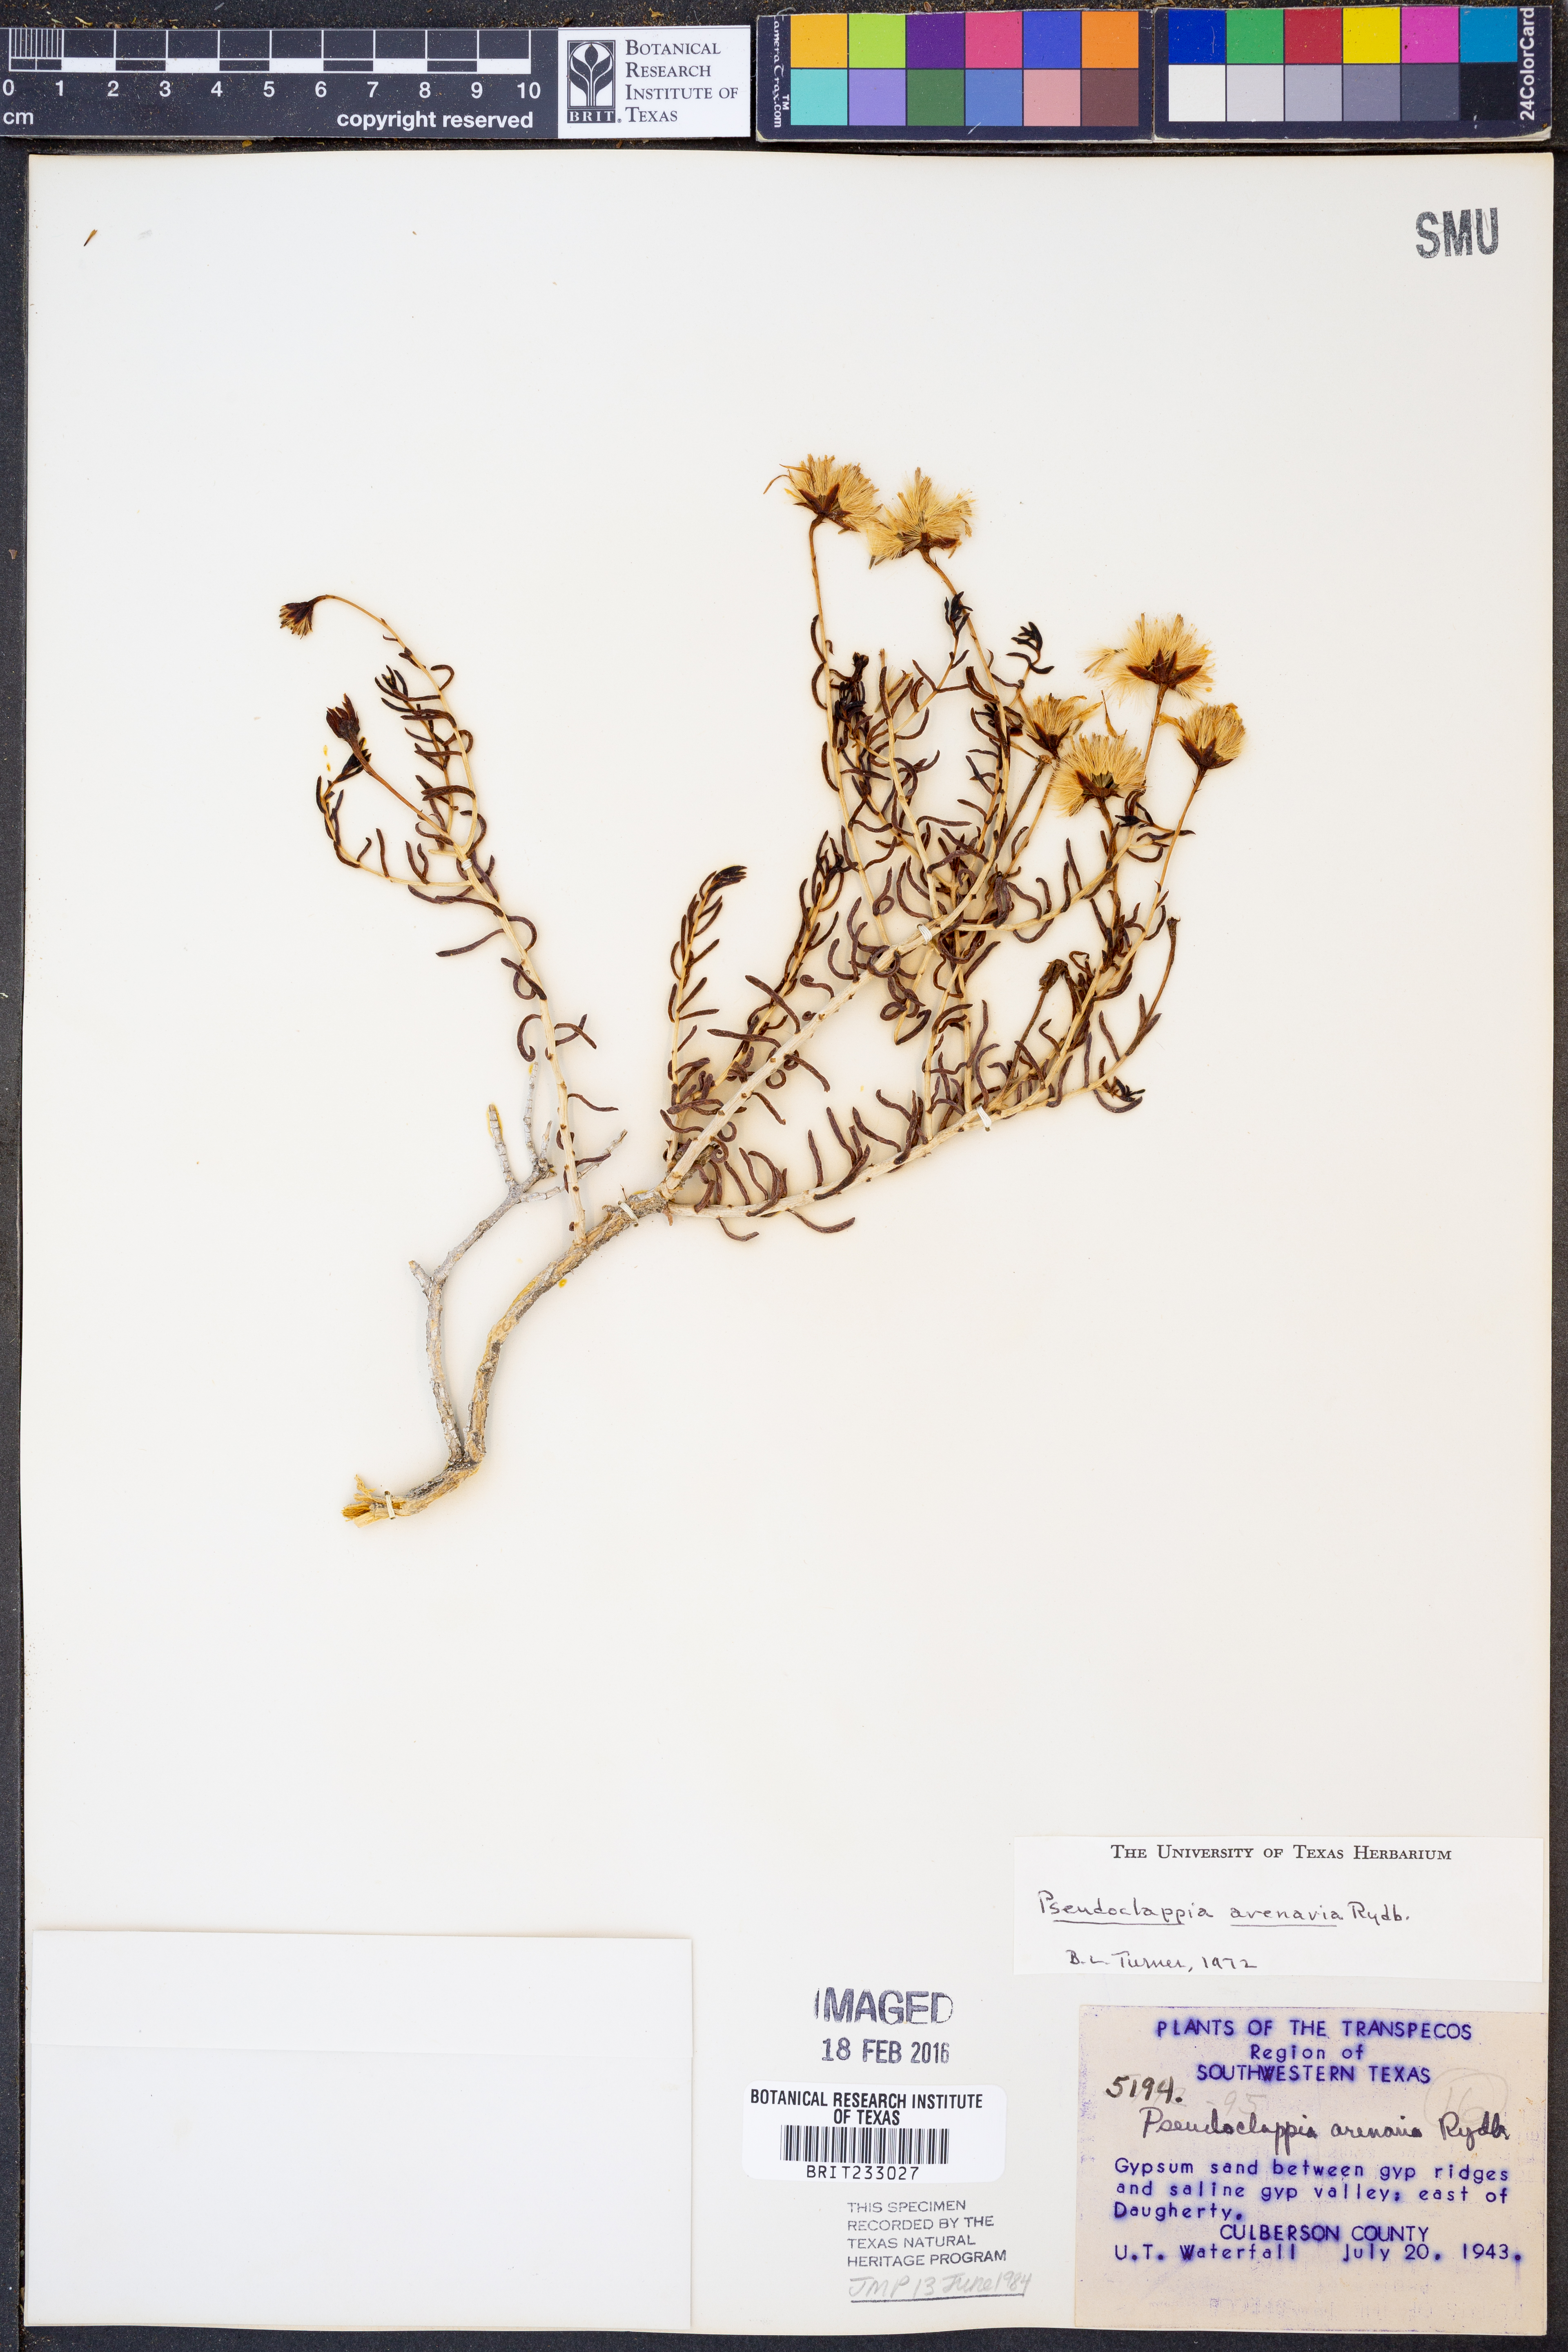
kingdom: Plantae
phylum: Tracheophyta
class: Magnoliopsida
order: Asterales
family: Asteraceae
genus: Pseudoclappia
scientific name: Pseudoclappia arenaria
